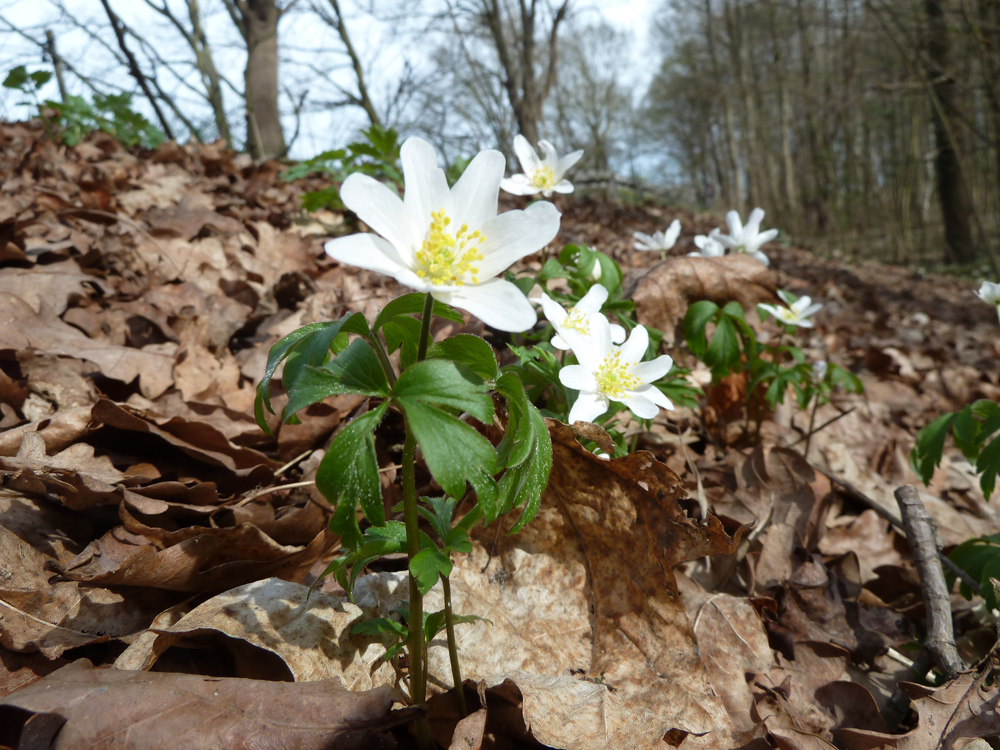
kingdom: Plantae
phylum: Tracheophyta
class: Magnoliopsida
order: Ranunculales
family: Ranunculaceae
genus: Anemone
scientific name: Anemone nemorosa
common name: Wood anemone
